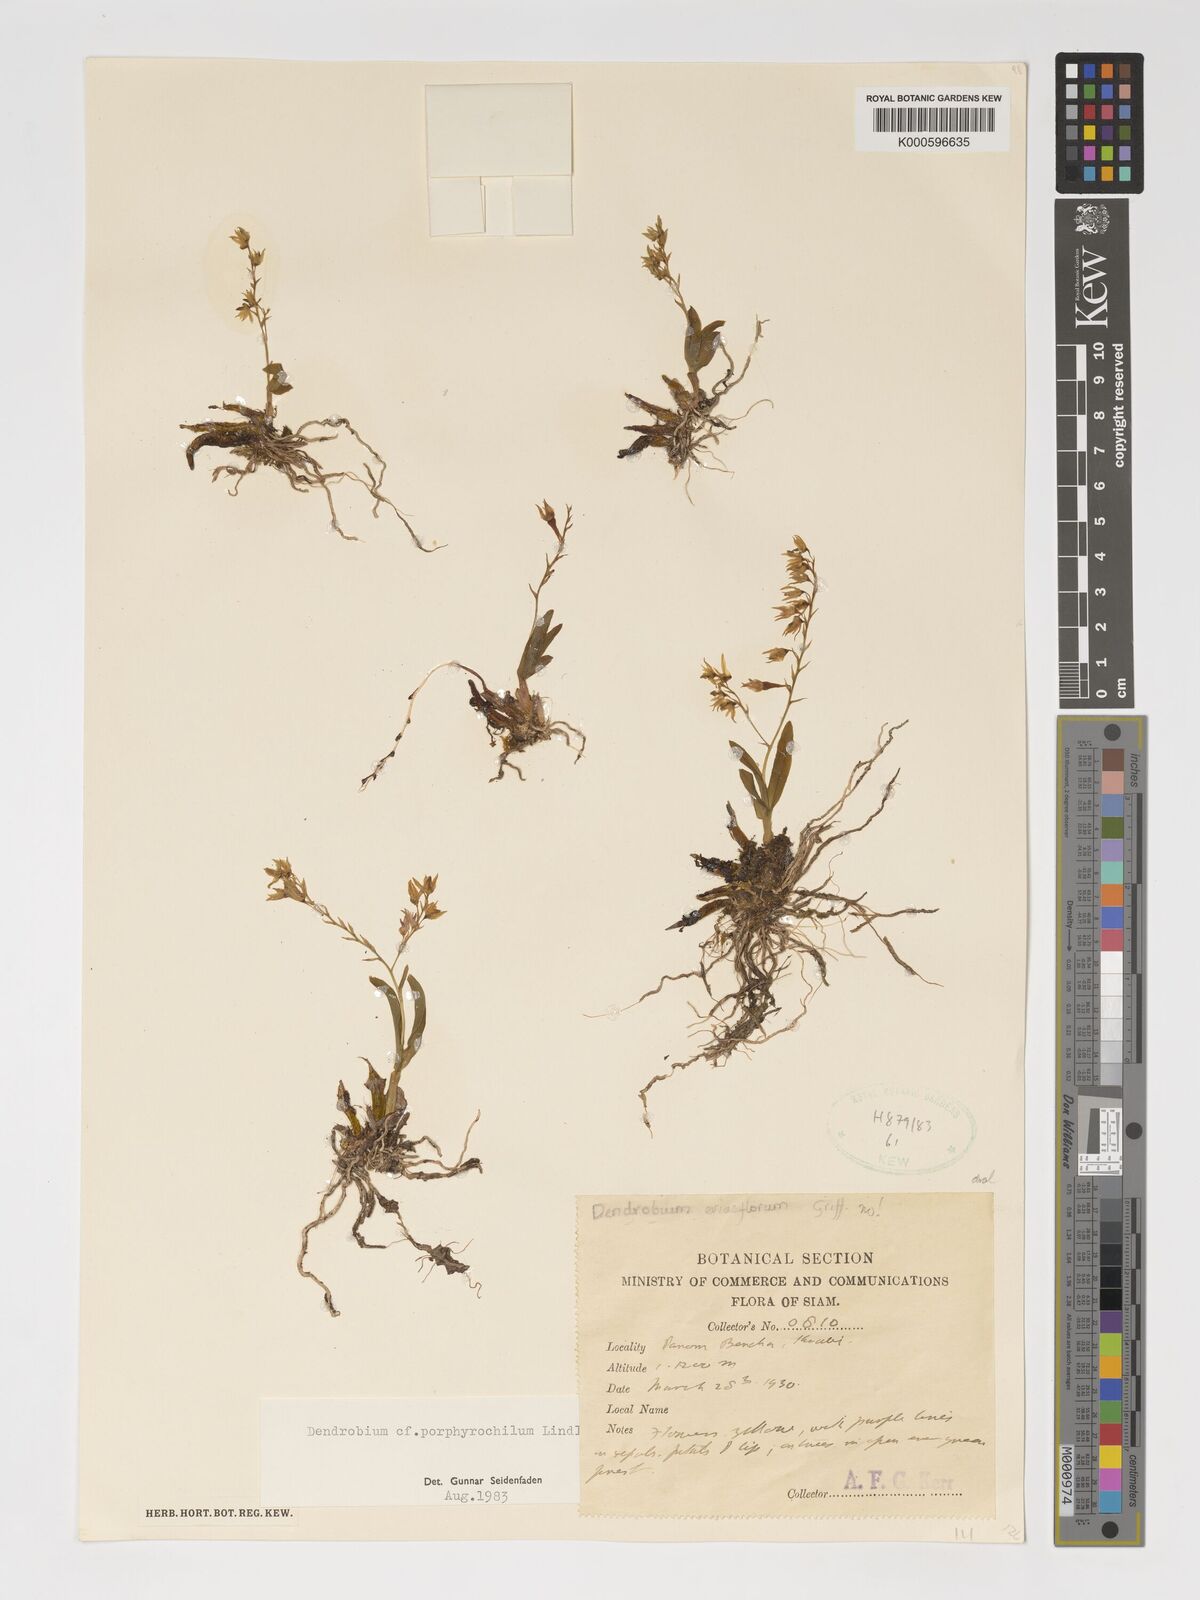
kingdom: Plantae
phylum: Tracheophyta
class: Liliopsida
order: Asparagales
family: Orchidaceae
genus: Dendrobium
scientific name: Dendrobium porphyrochilum
